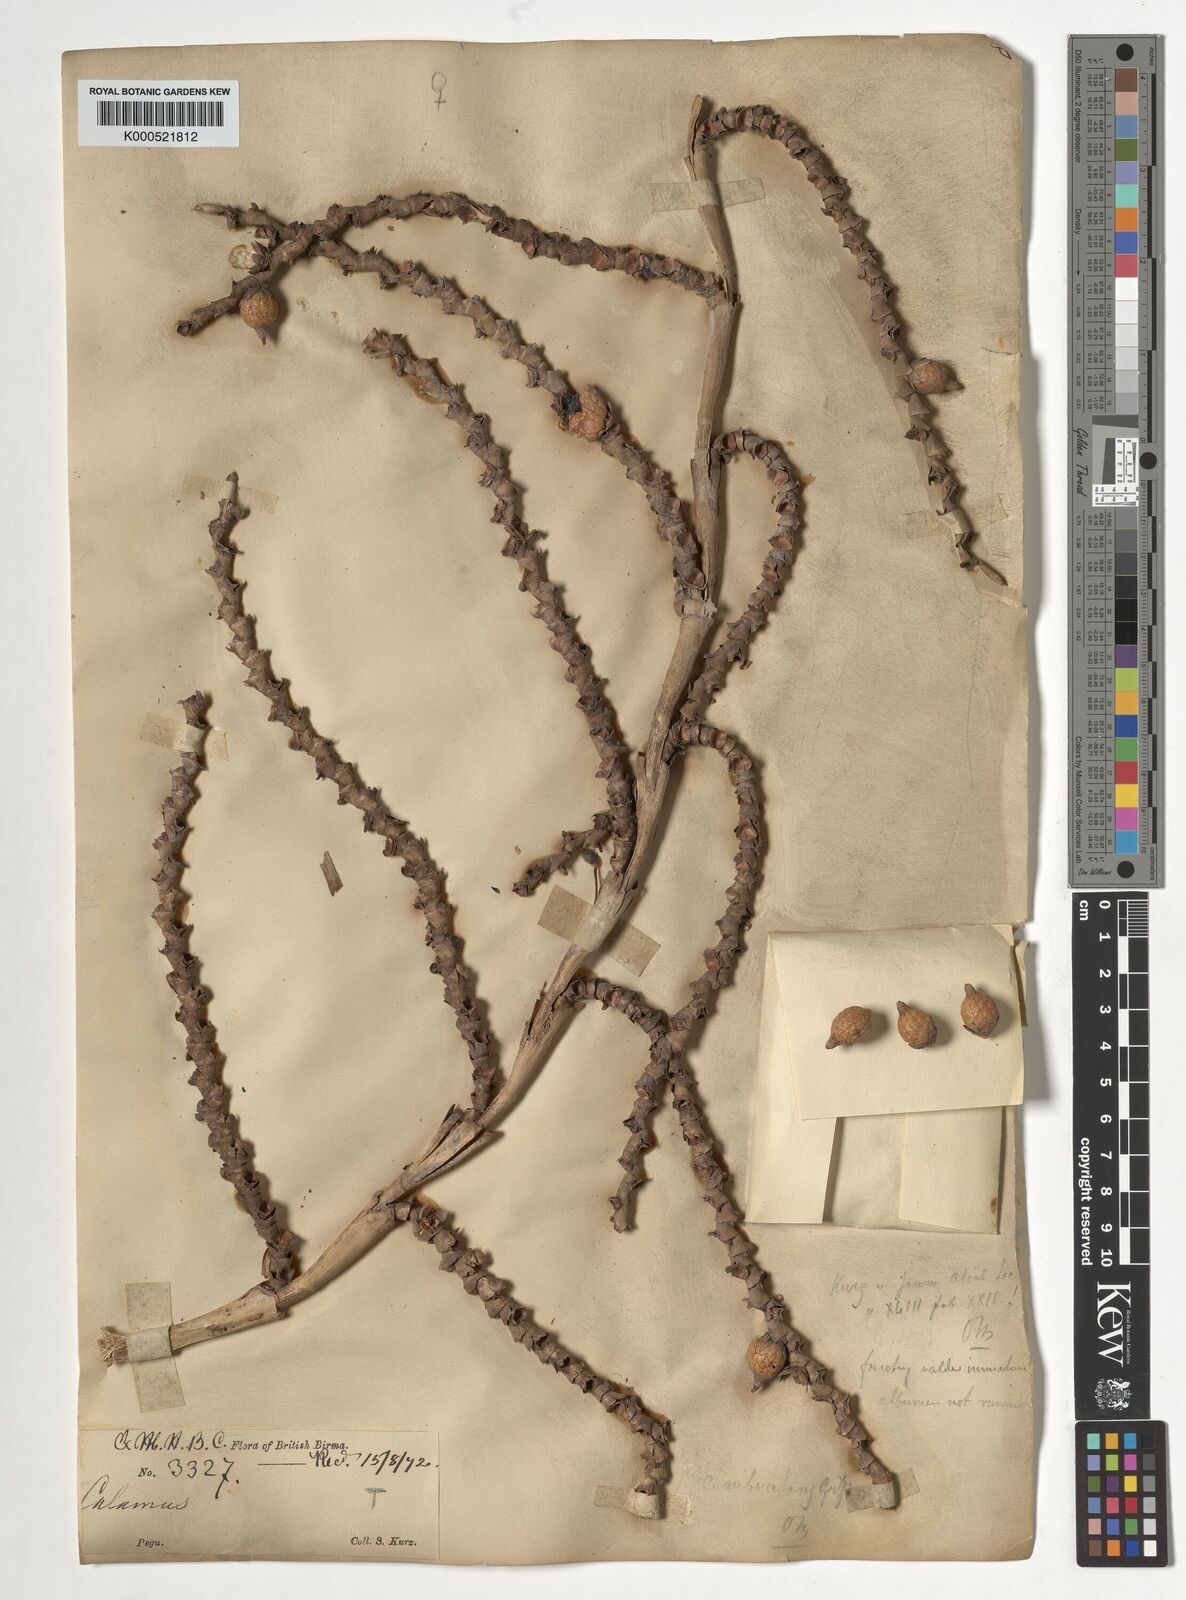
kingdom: Plantae
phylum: Tracheophyta
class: Liliopsida
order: Arecales
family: Arecaceae
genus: Calamus
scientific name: Calamus arborescens
